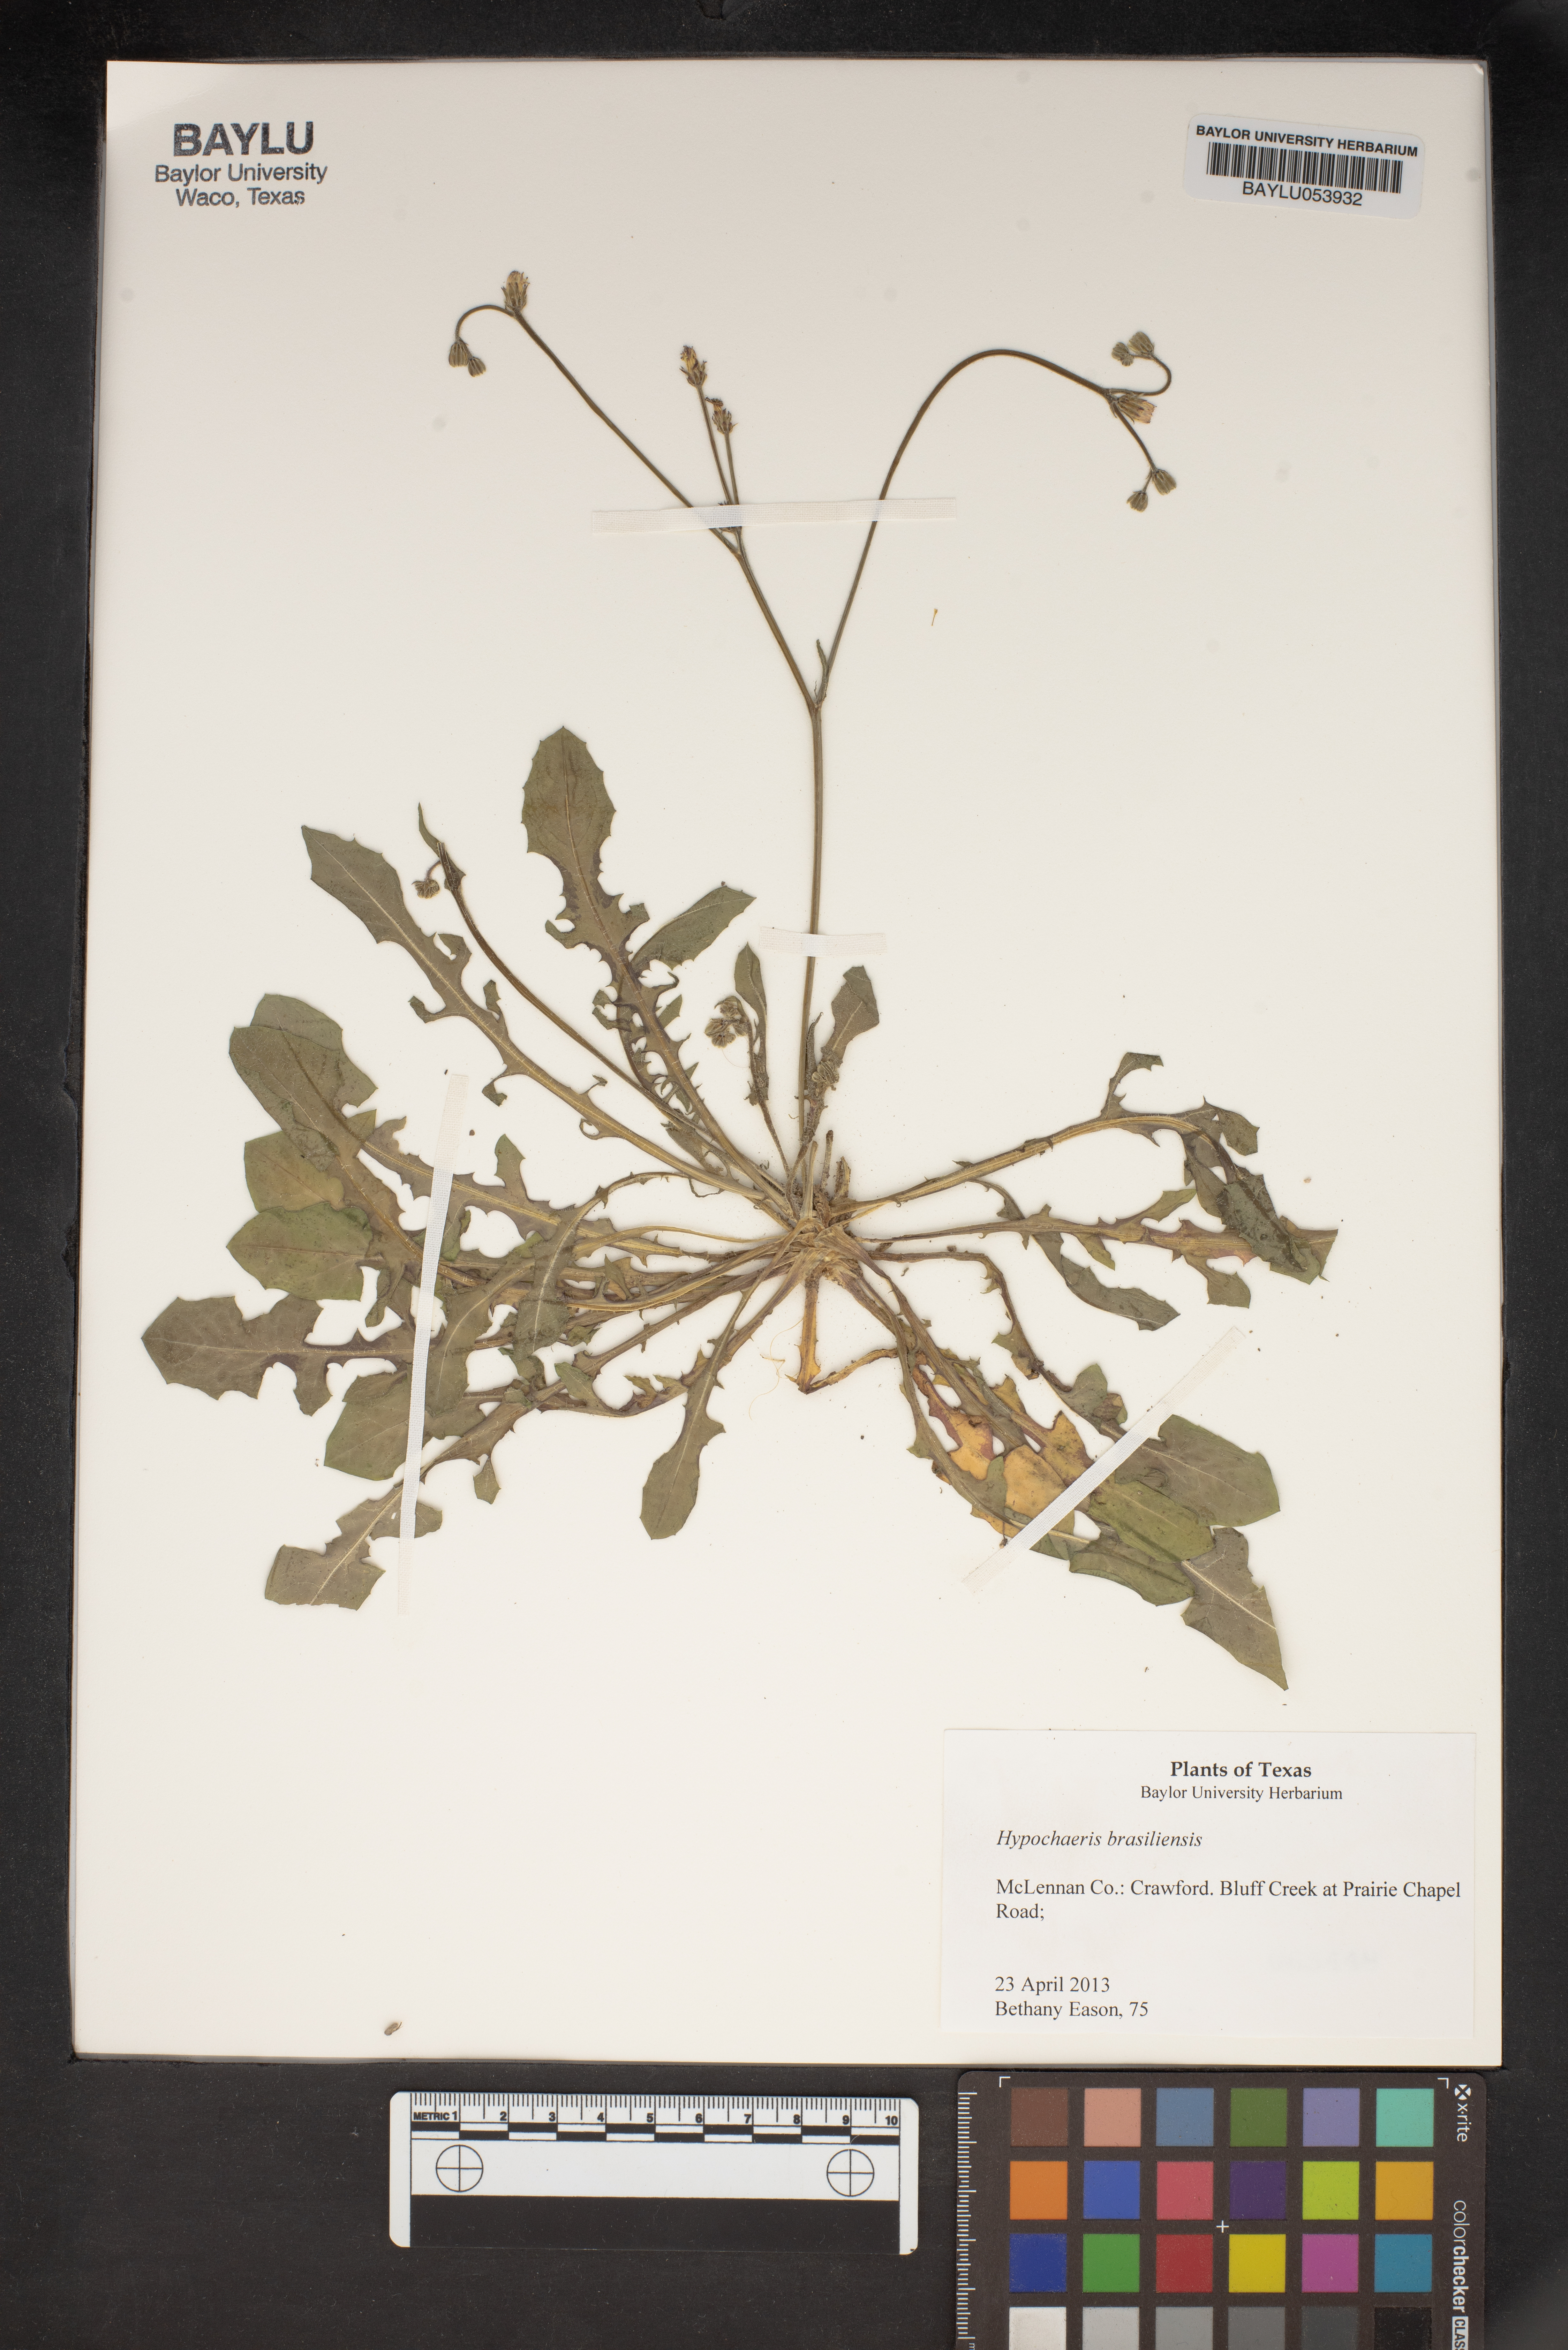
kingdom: Plantae
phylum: Tracheophyta
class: Magnoliopsida
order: Asterales
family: Asteraceae
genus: Hypochaeris
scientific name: Hypochaeris chillensis
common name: Brazilian cat's ear
